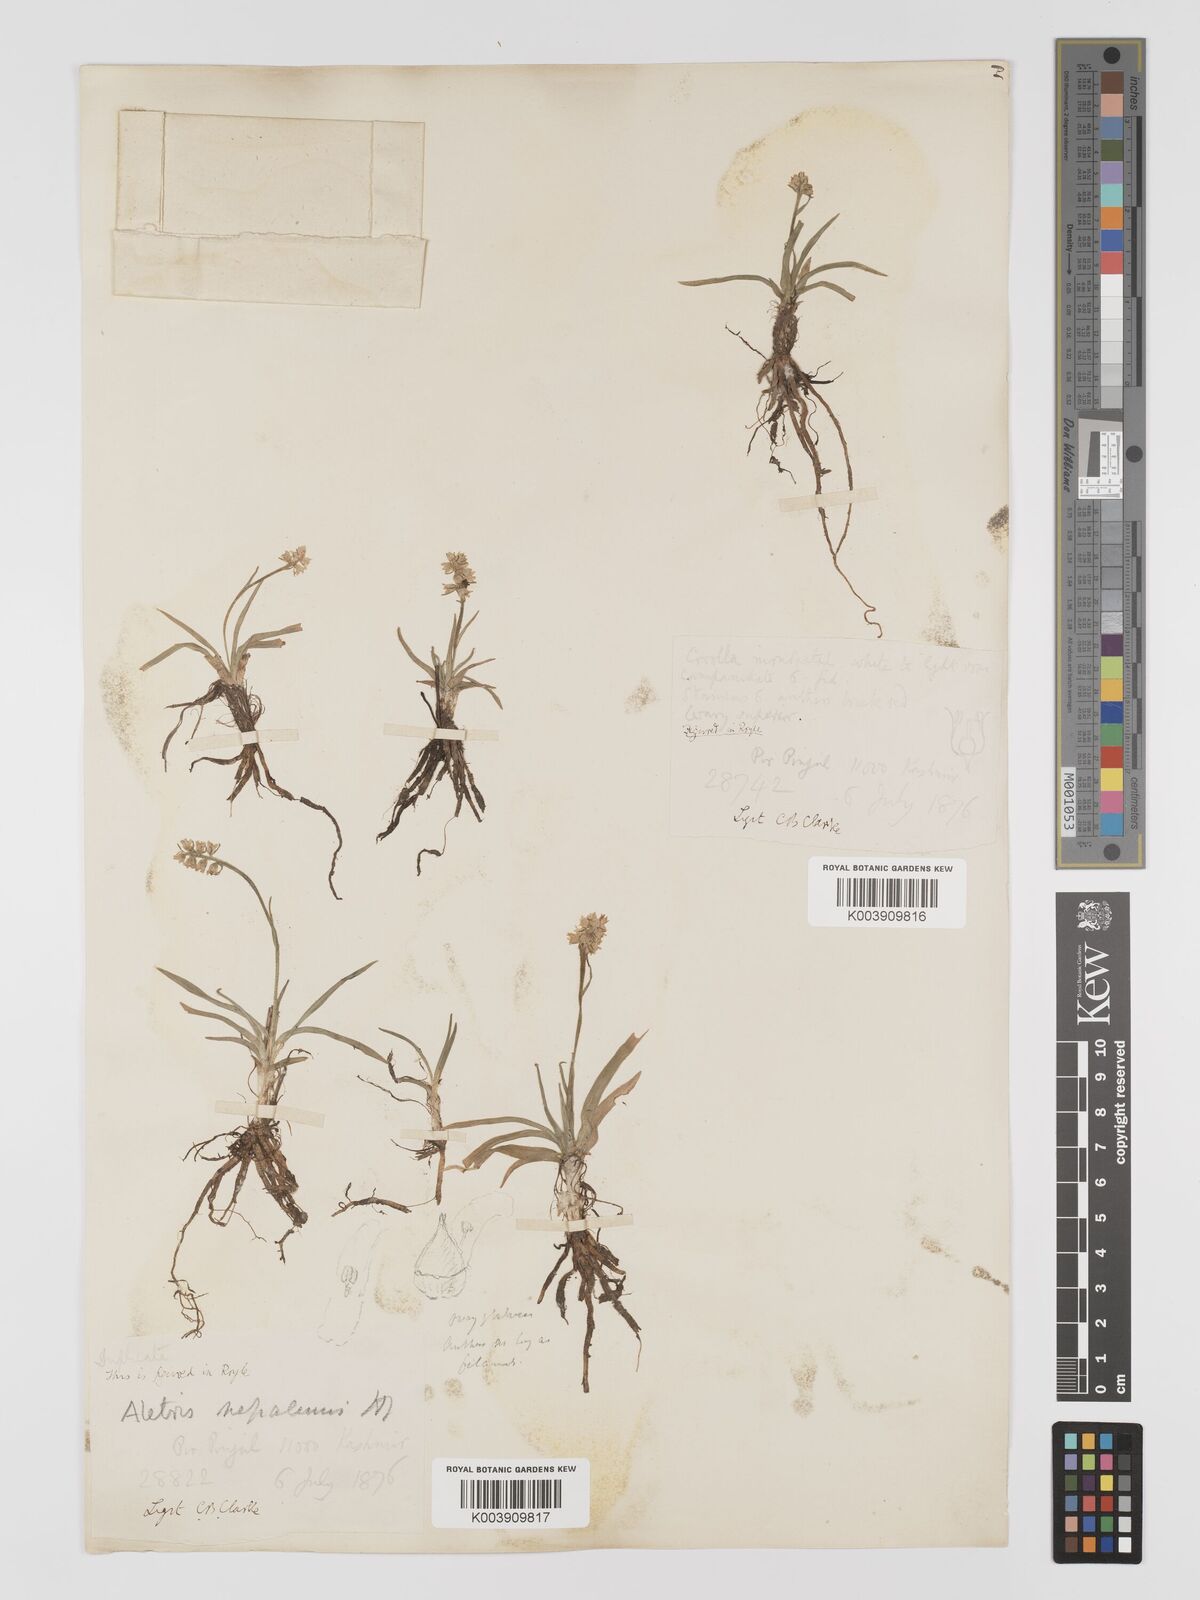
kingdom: Plantae
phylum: Tracheophyta
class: Liliopsida
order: Dioscoreales
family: Nartheciaceae
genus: Aletris
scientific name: Aletris pauciflora
